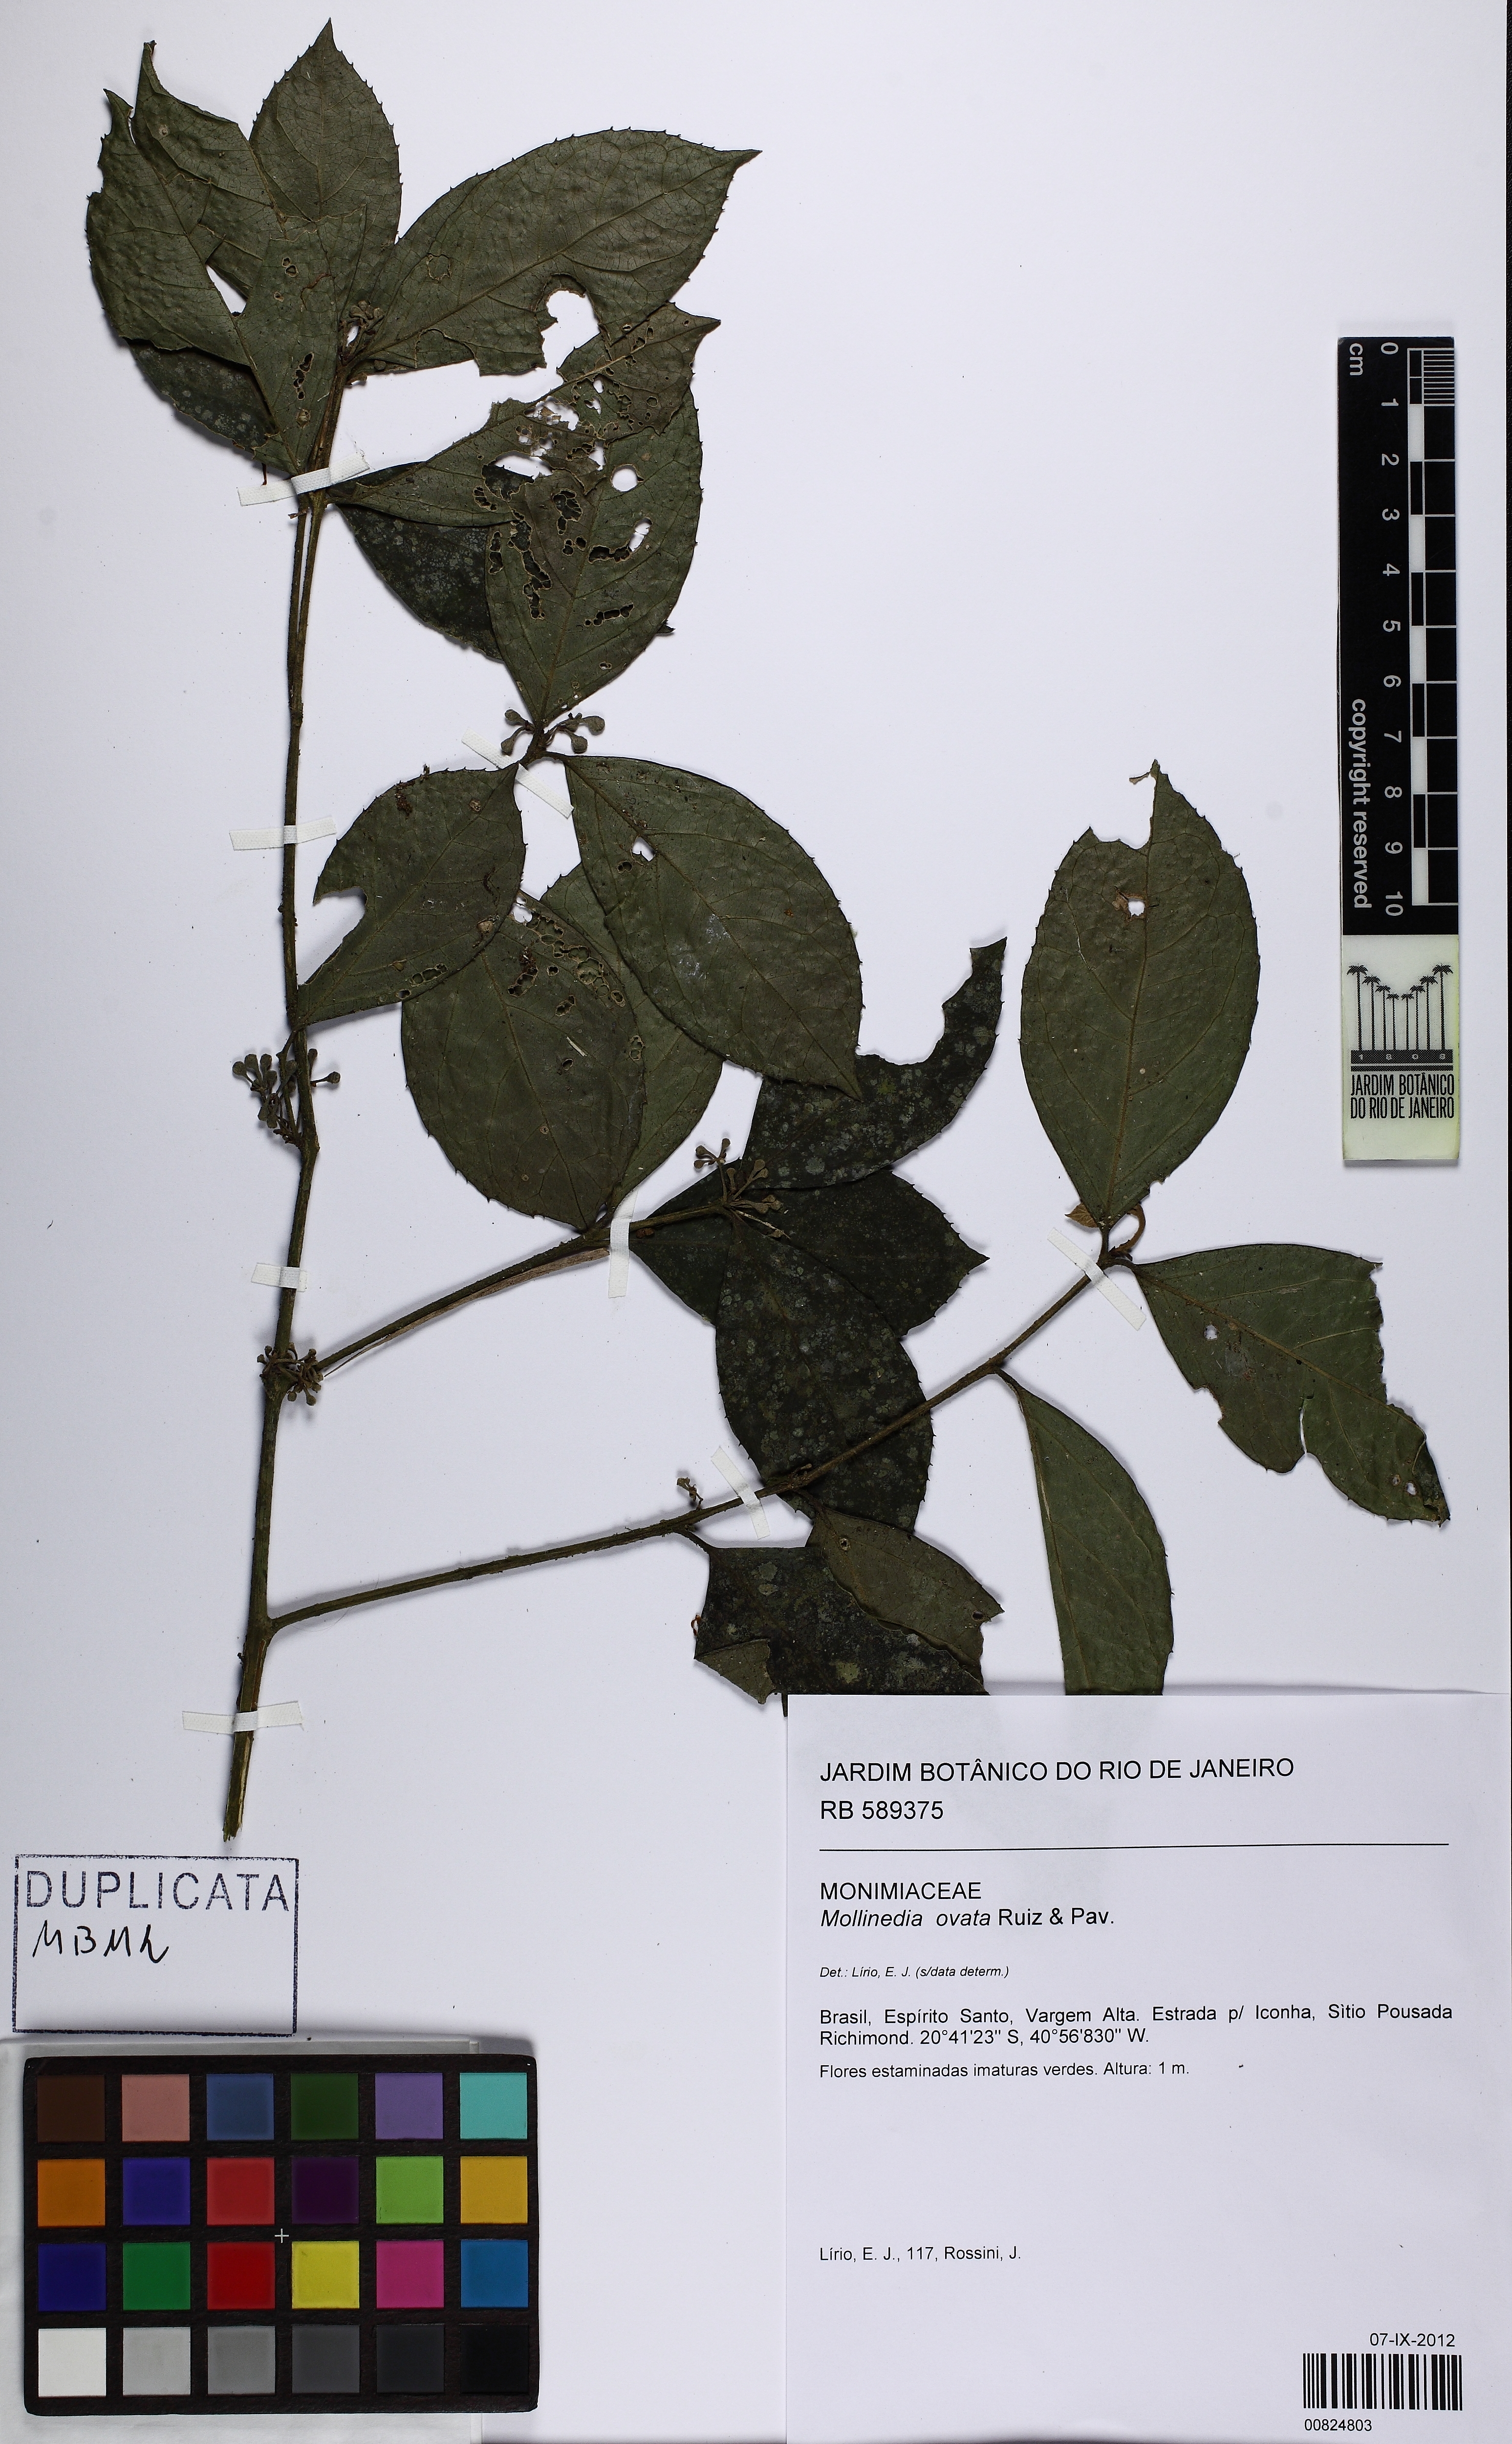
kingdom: Plantae
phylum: Tracheophyta
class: Magnoliopsida
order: Laurales
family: Monimiaceae
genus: Mollinedia
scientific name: Mollinedia ovata
